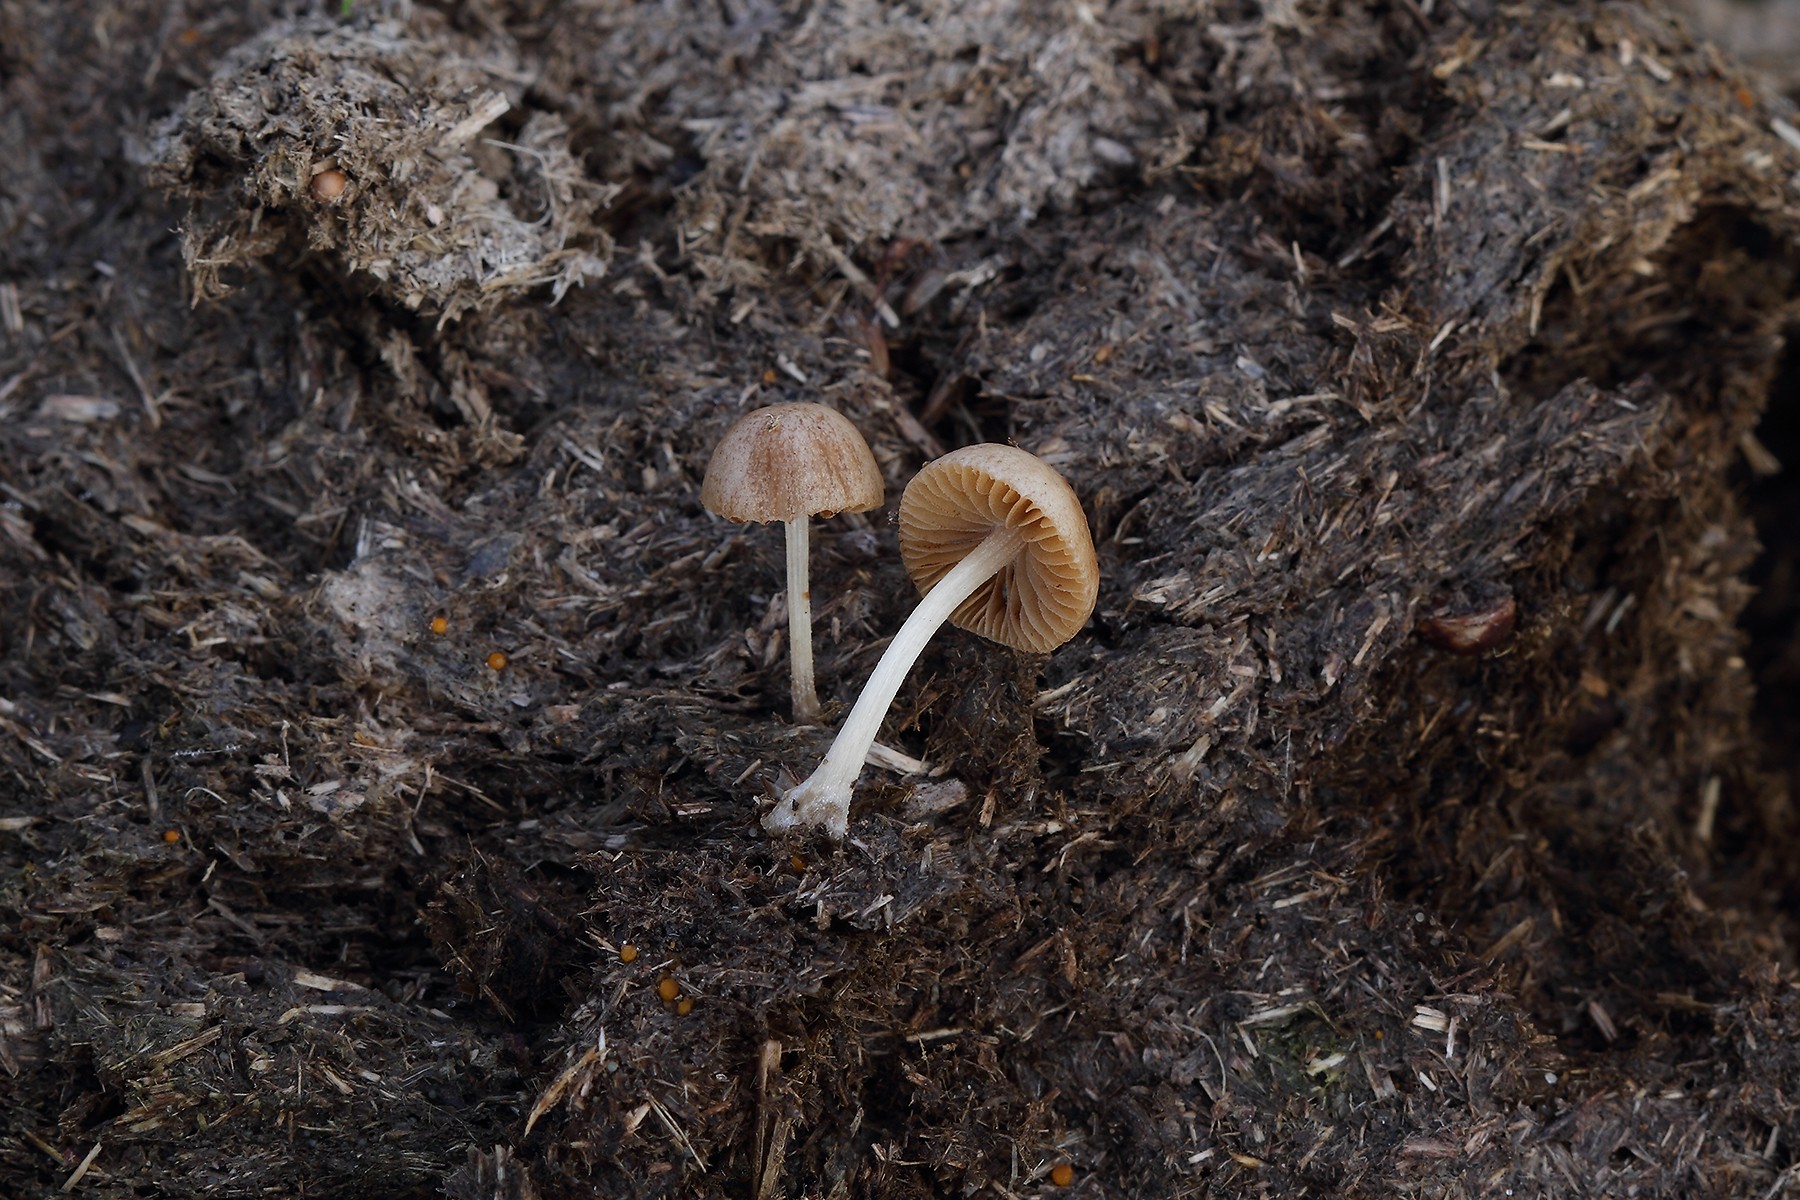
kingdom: Fungi
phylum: Basidiomycota
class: Agaricomycetes
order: Agaricales
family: Bolbitiaceae
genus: Conocybe
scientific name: Conocybe coprophila
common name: gødnings-dansehat
